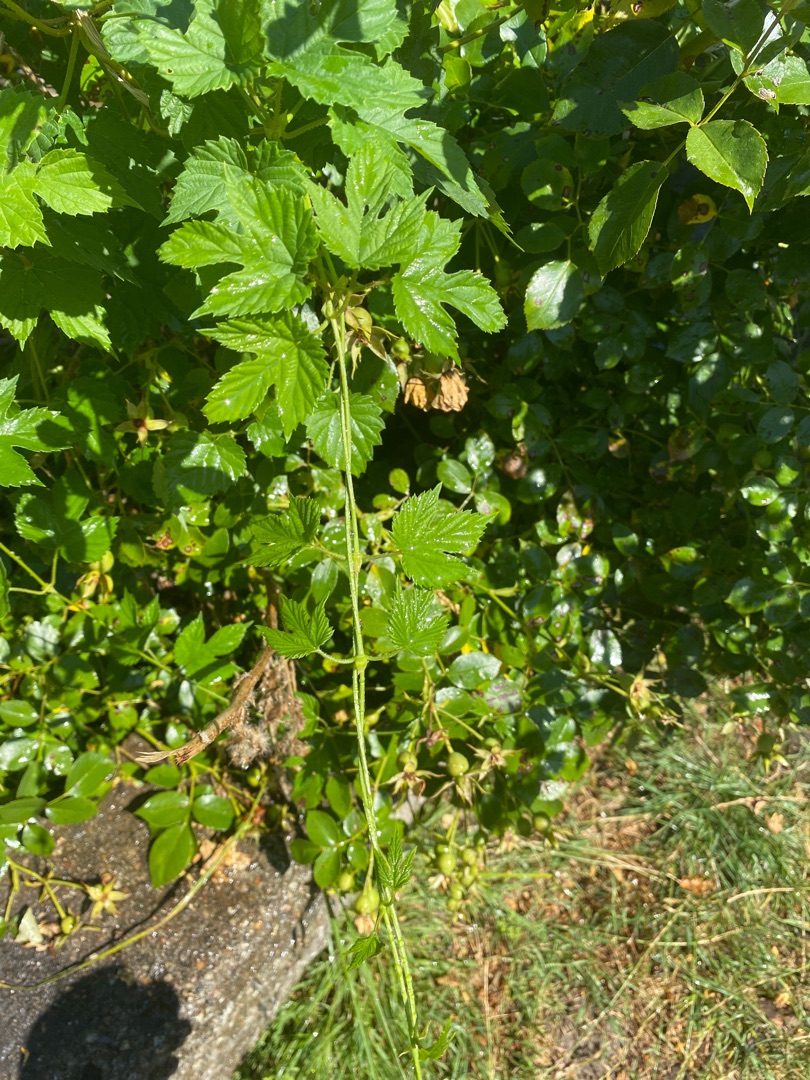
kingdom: Plantae
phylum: Tracheophyta
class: Magnoliopsida
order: Rosales
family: Cannabaceae
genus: Humulus
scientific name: Humulus lupulus
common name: Humle
